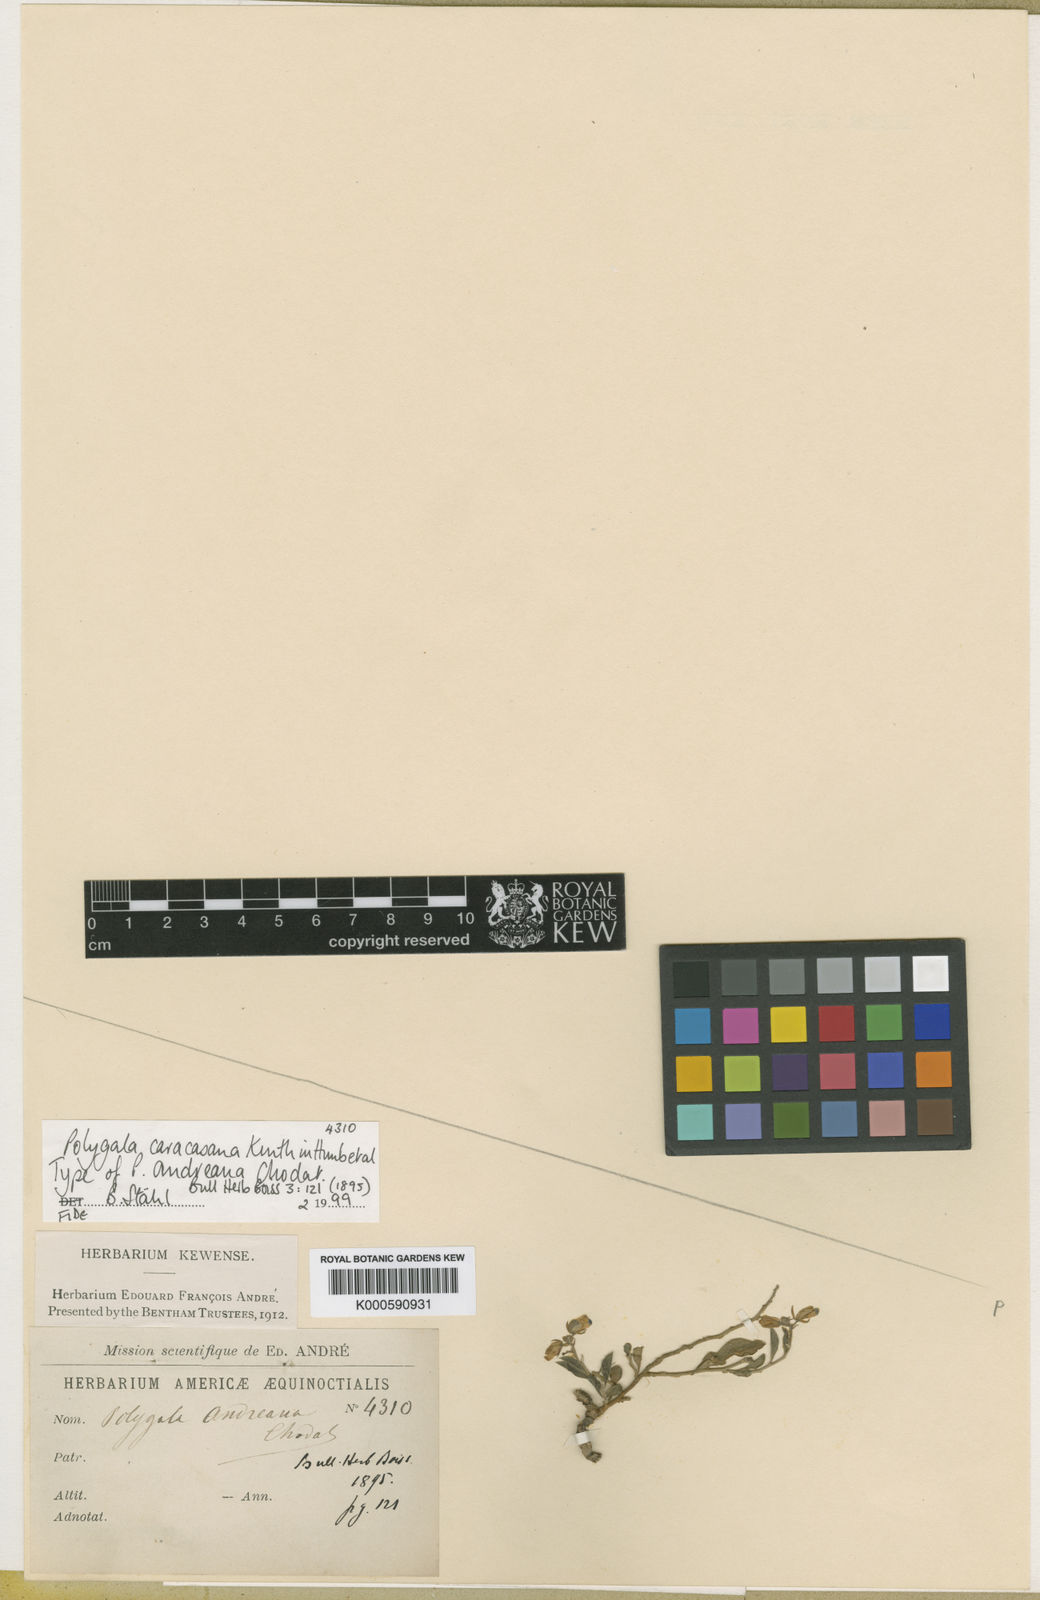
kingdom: Plantae
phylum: Tracheophyta
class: Magnoliopsida
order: Fabales
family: Polygalaceae
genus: Hebecarpa
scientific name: Hebecarpa caracasana
